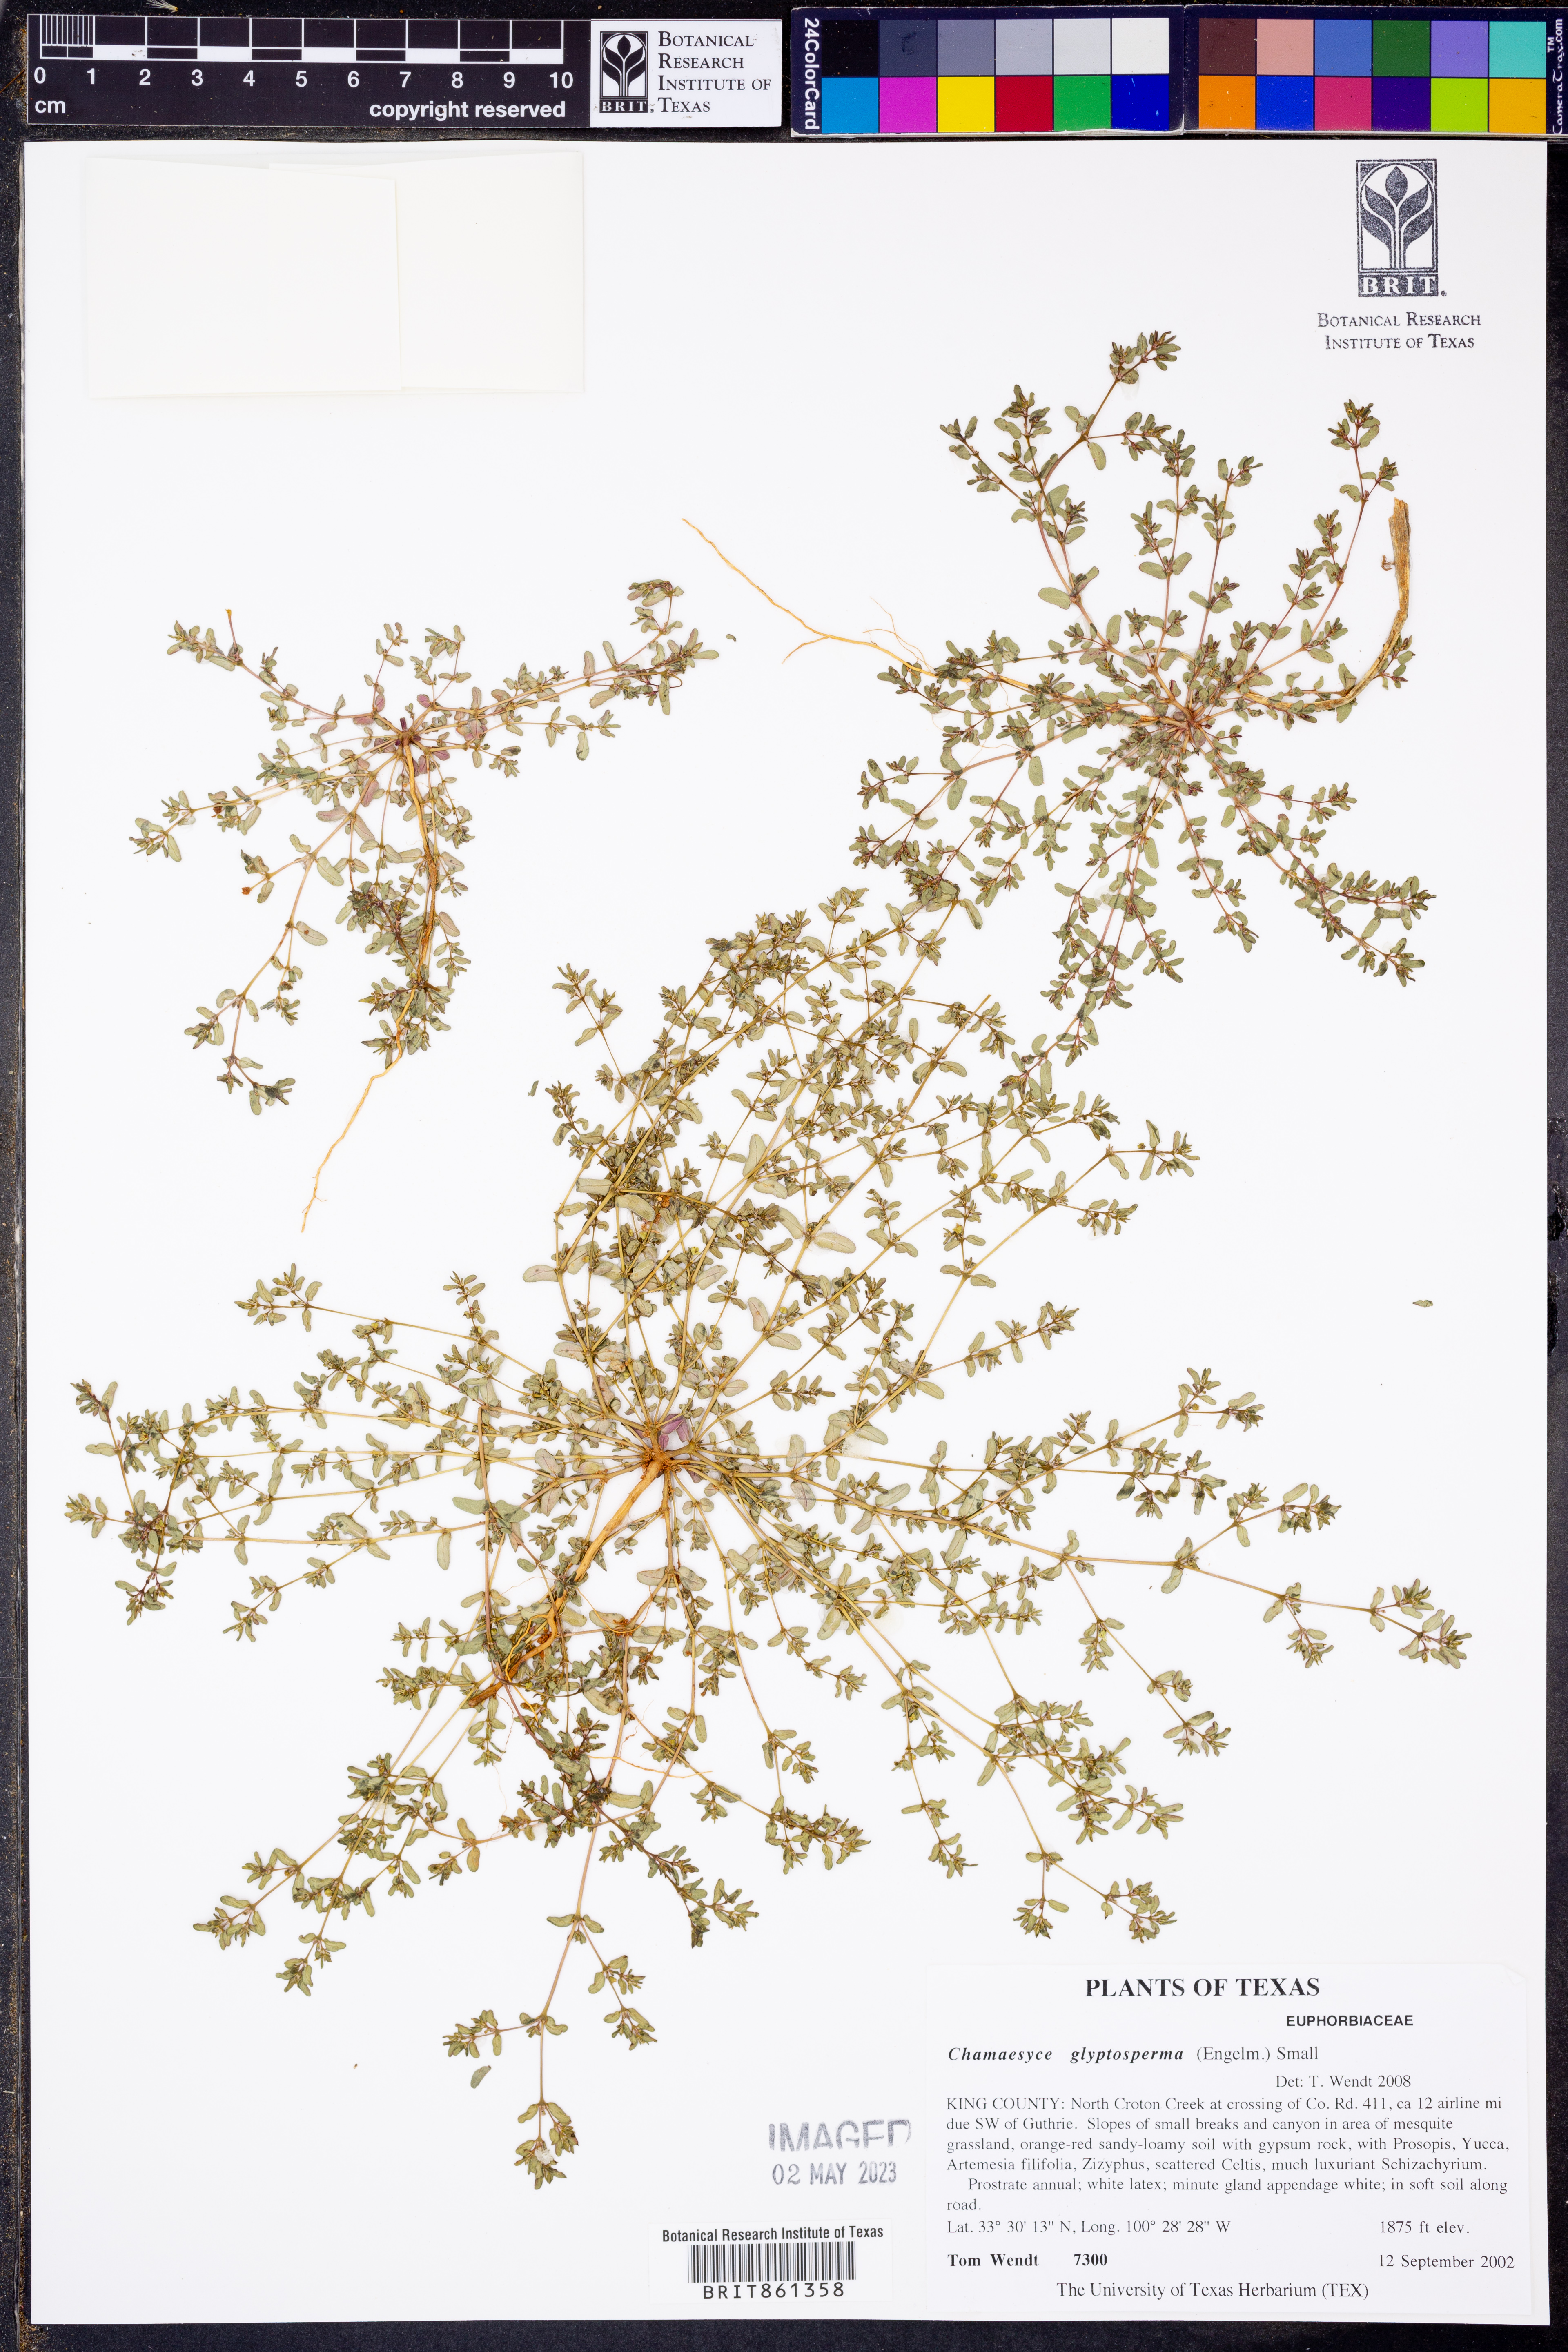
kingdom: Plantae
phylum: Tracheophyta
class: Magnoliopsida
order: Malpighiales
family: Euphorbiaceae
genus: Euphorbia
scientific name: Euphorbia glyptosperma
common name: Corrugate-seeded spurge
